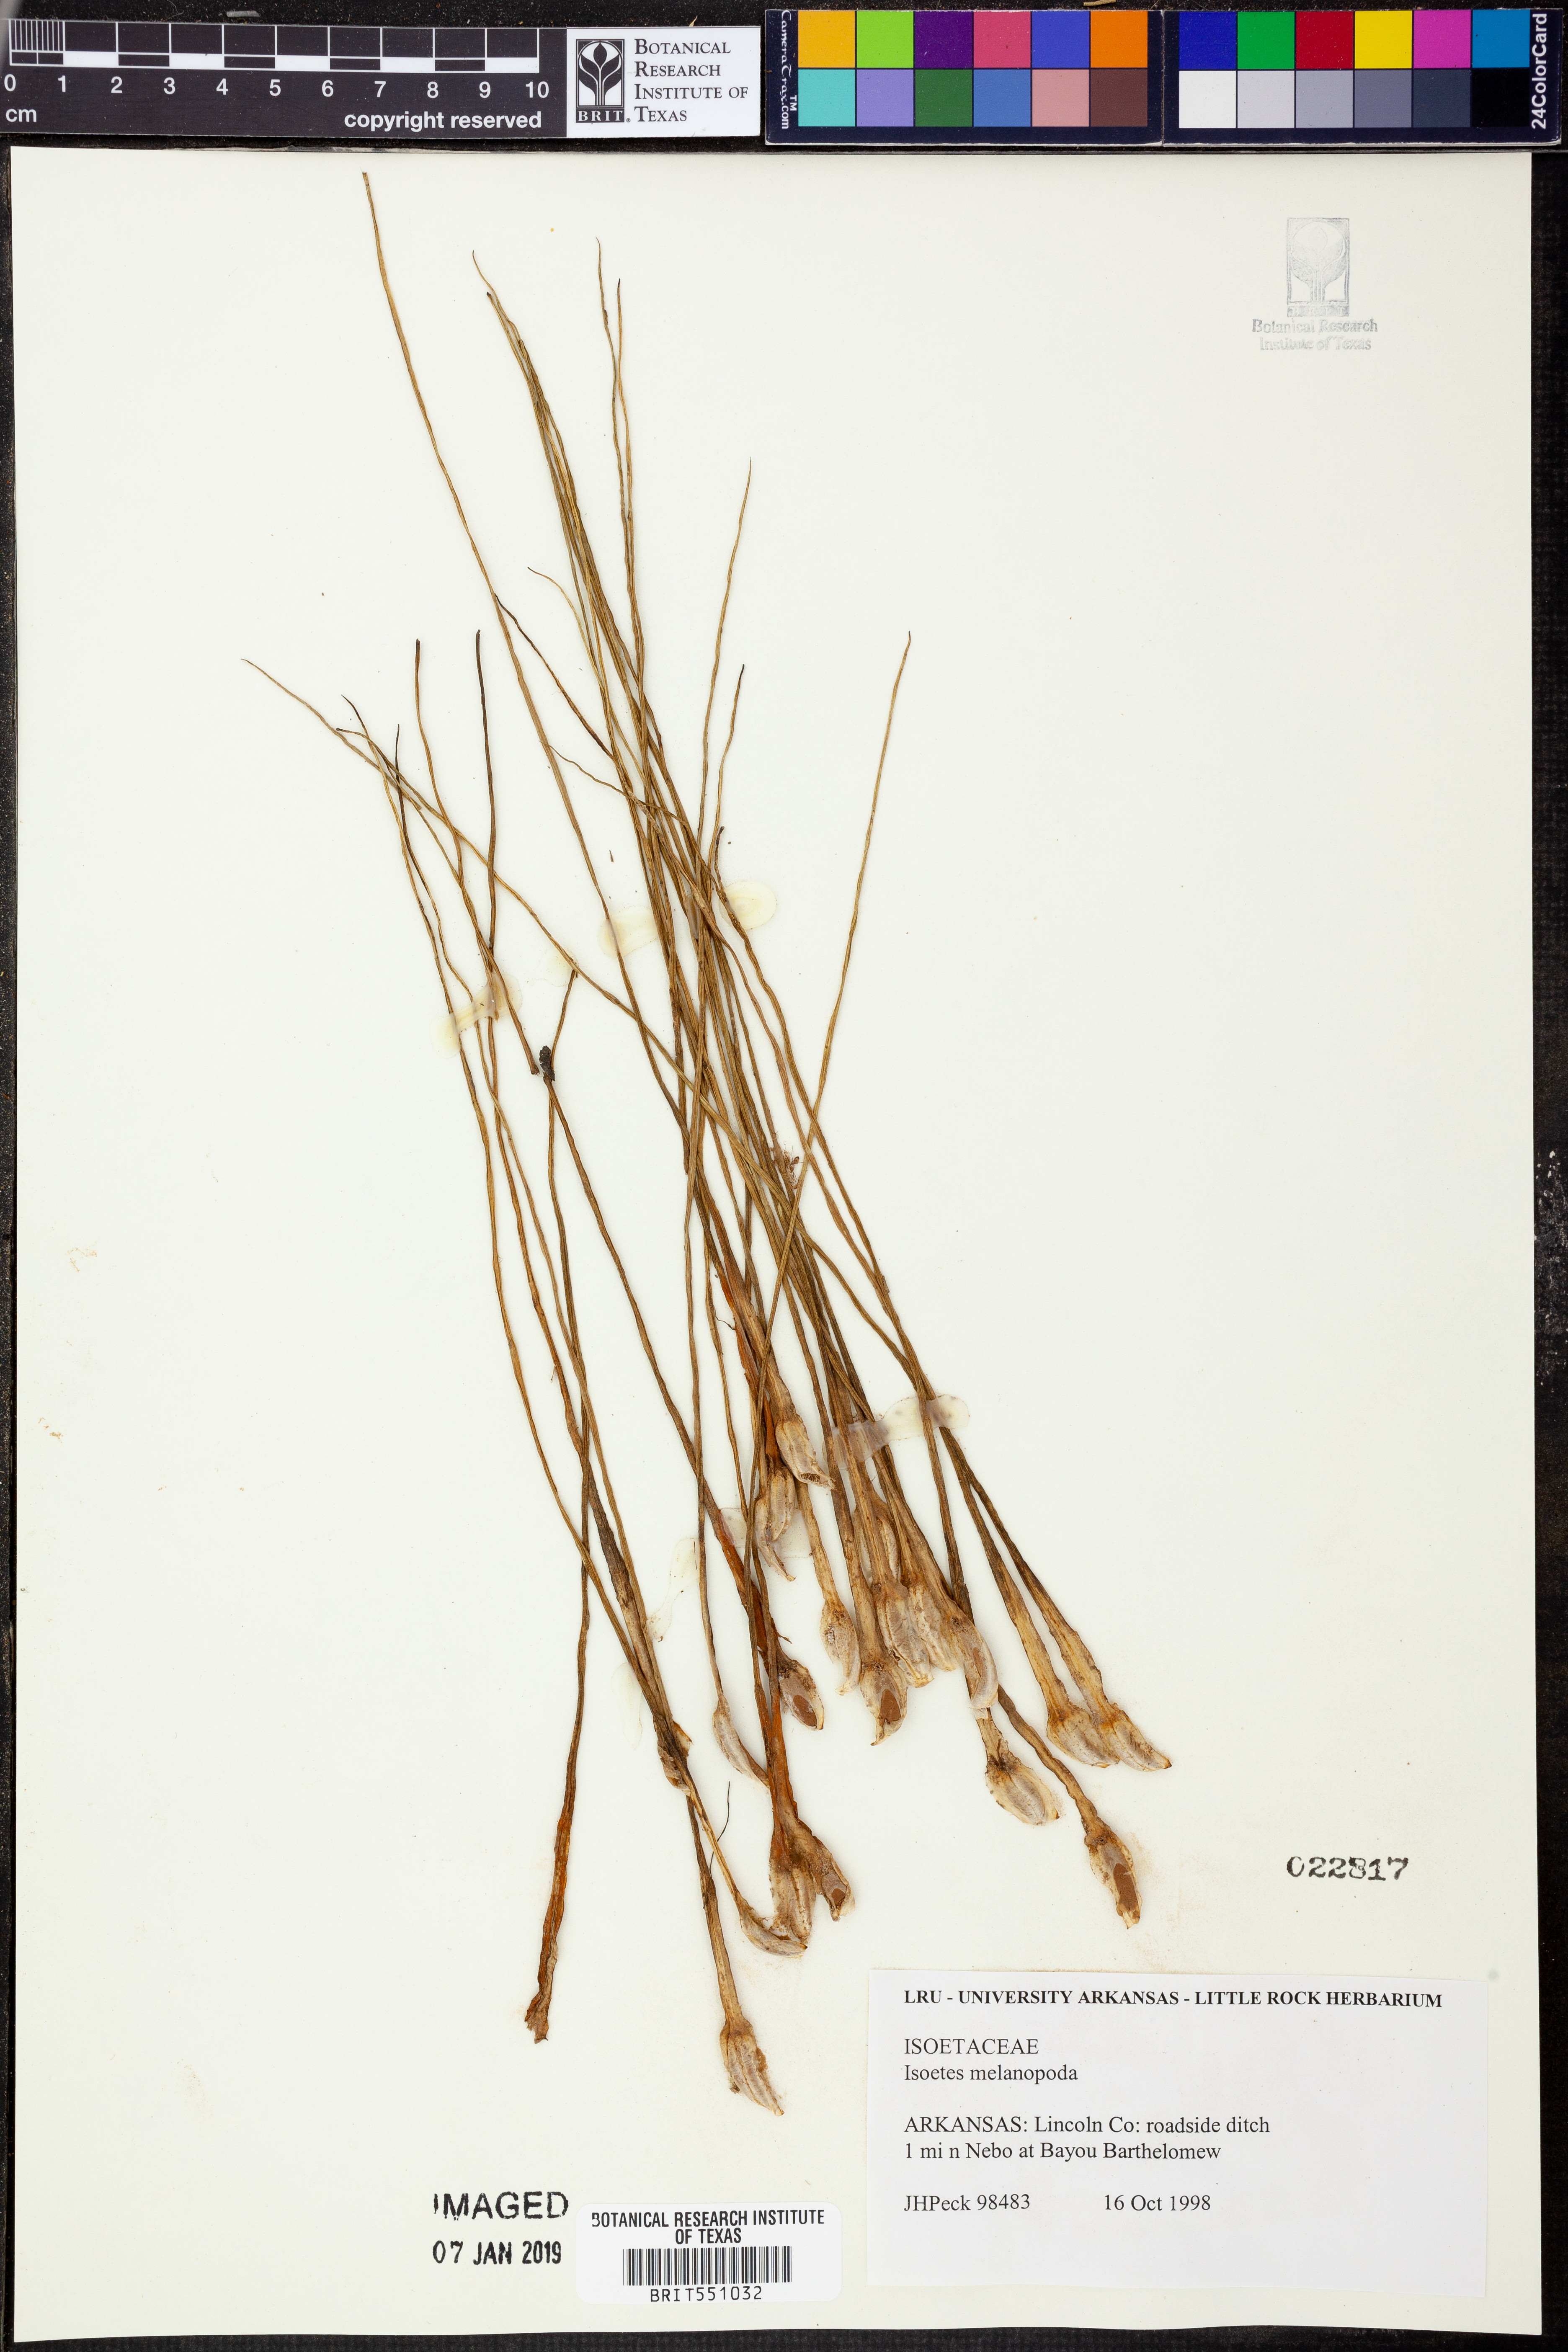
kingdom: Plantae
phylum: Tracheophyta
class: Lycopodiopsida
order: Isoetales
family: Isoetaceae
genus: Isoetes
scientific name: Isoetes melanopoda
